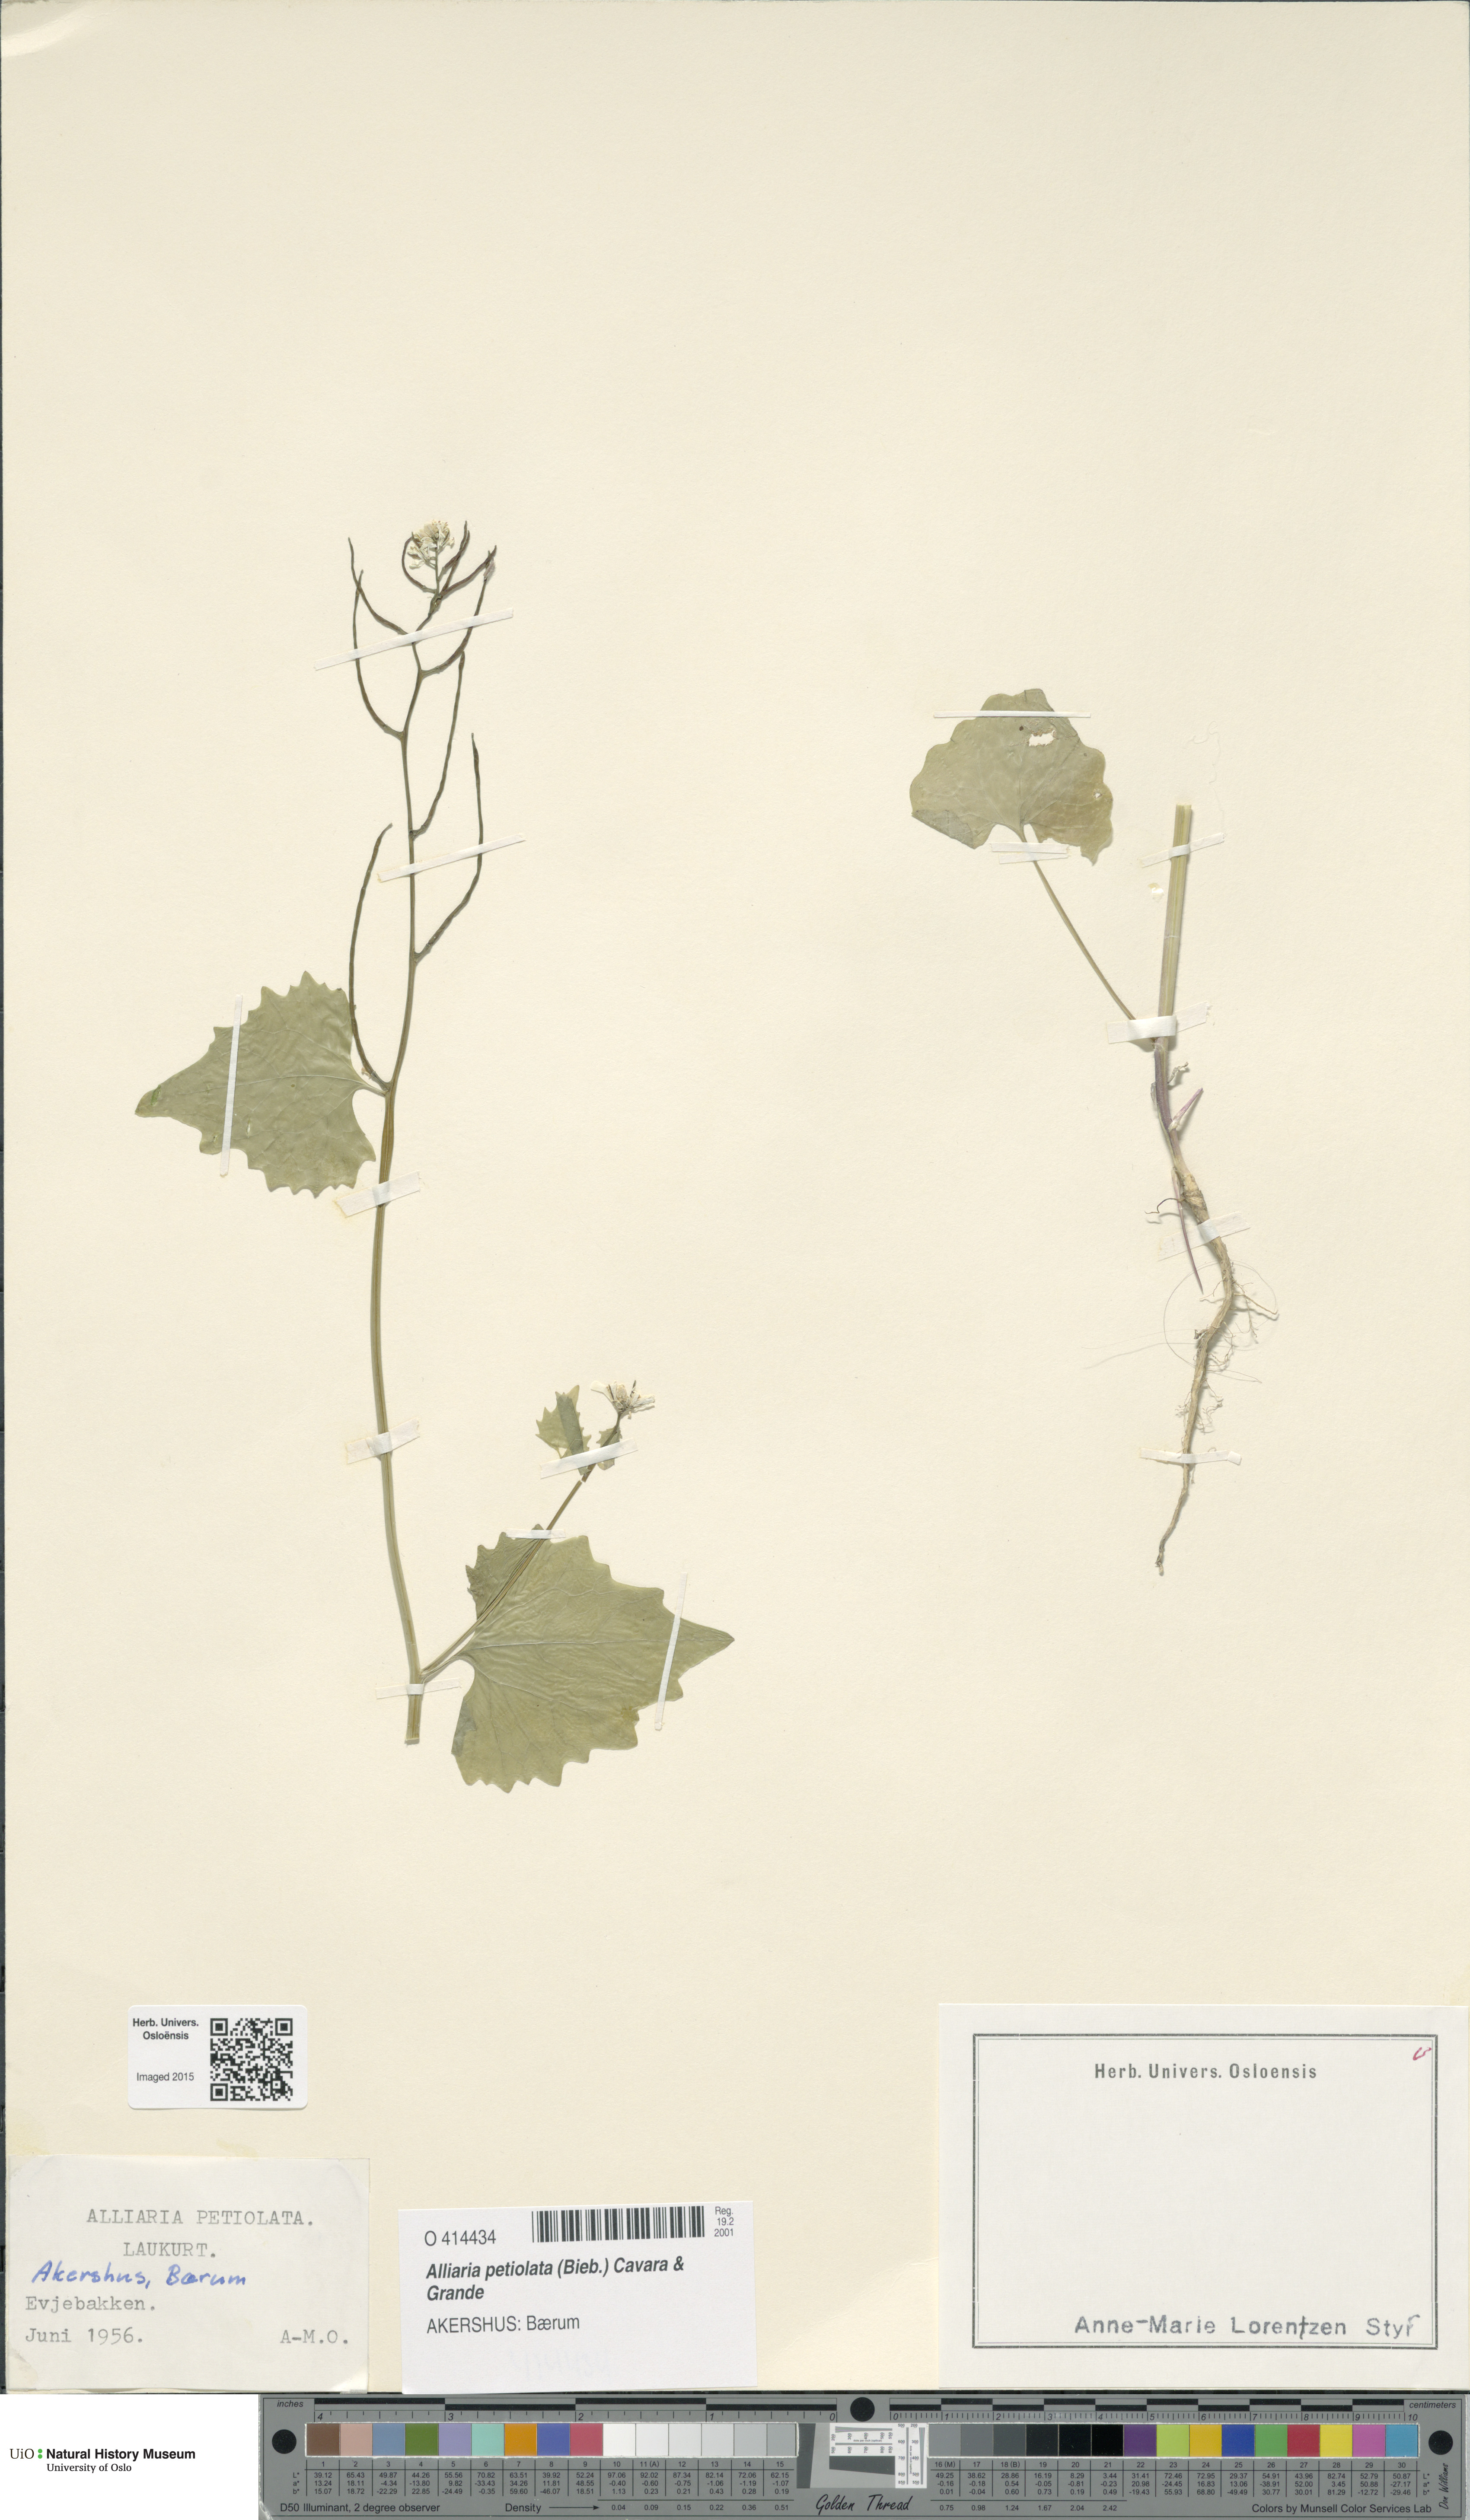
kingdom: Plantae
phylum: Tracheophyta
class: Magnoliopsida
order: Brassicales
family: Brassicaceae
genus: Alliaria
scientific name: Alliaria petiolata
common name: Garlic mustard
